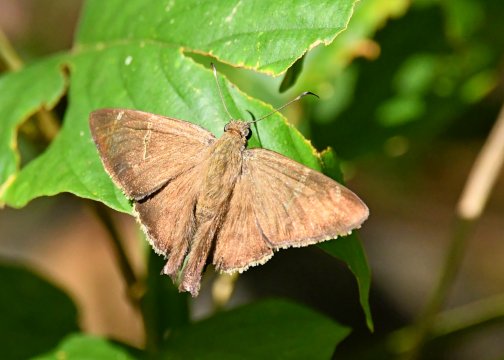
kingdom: Animalia
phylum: Arthropoda
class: Insecta
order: Lepidoptera
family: Hesperiidae
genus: Urbanus
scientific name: Urbanus simplicius
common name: Plain Longtail
